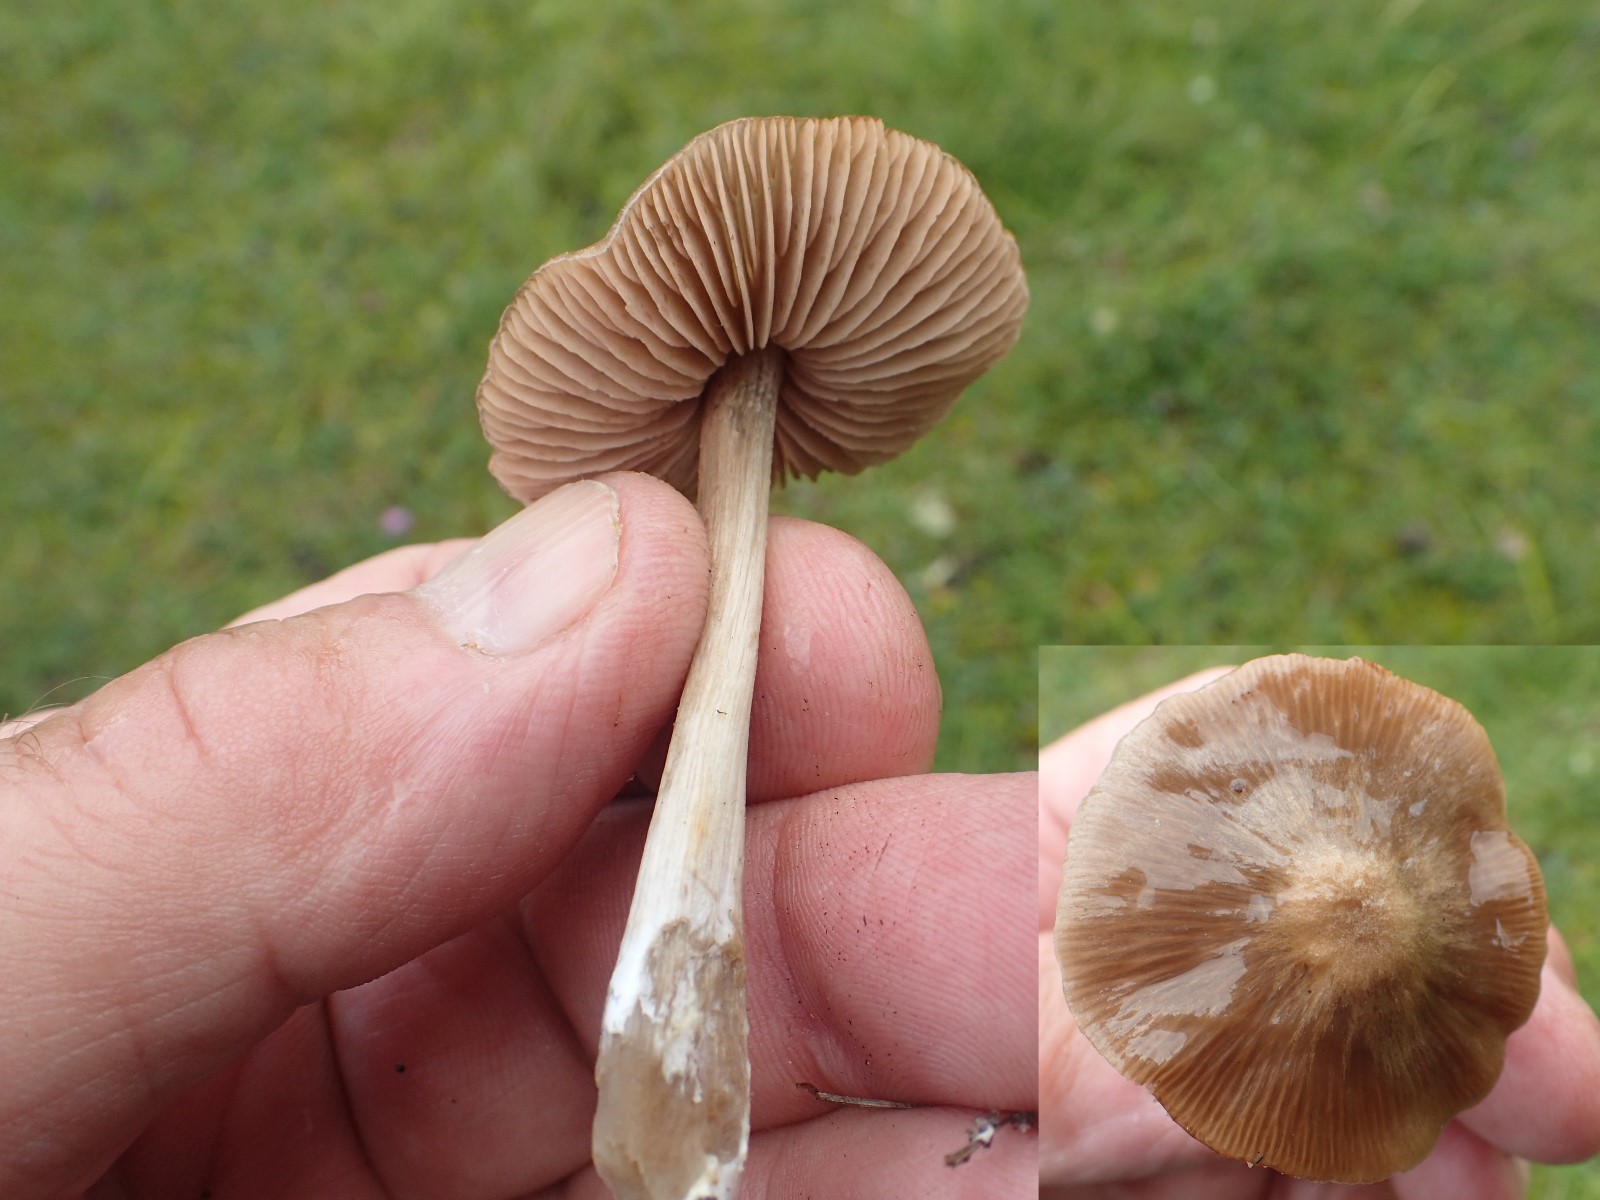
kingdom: Fungi
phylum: Basidiomycota
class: Agaricomycetes
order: Agaricales
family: Entolomataceae
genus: Entoloma
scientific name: Entoloma conferendum
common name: stjernesporet rødblad
